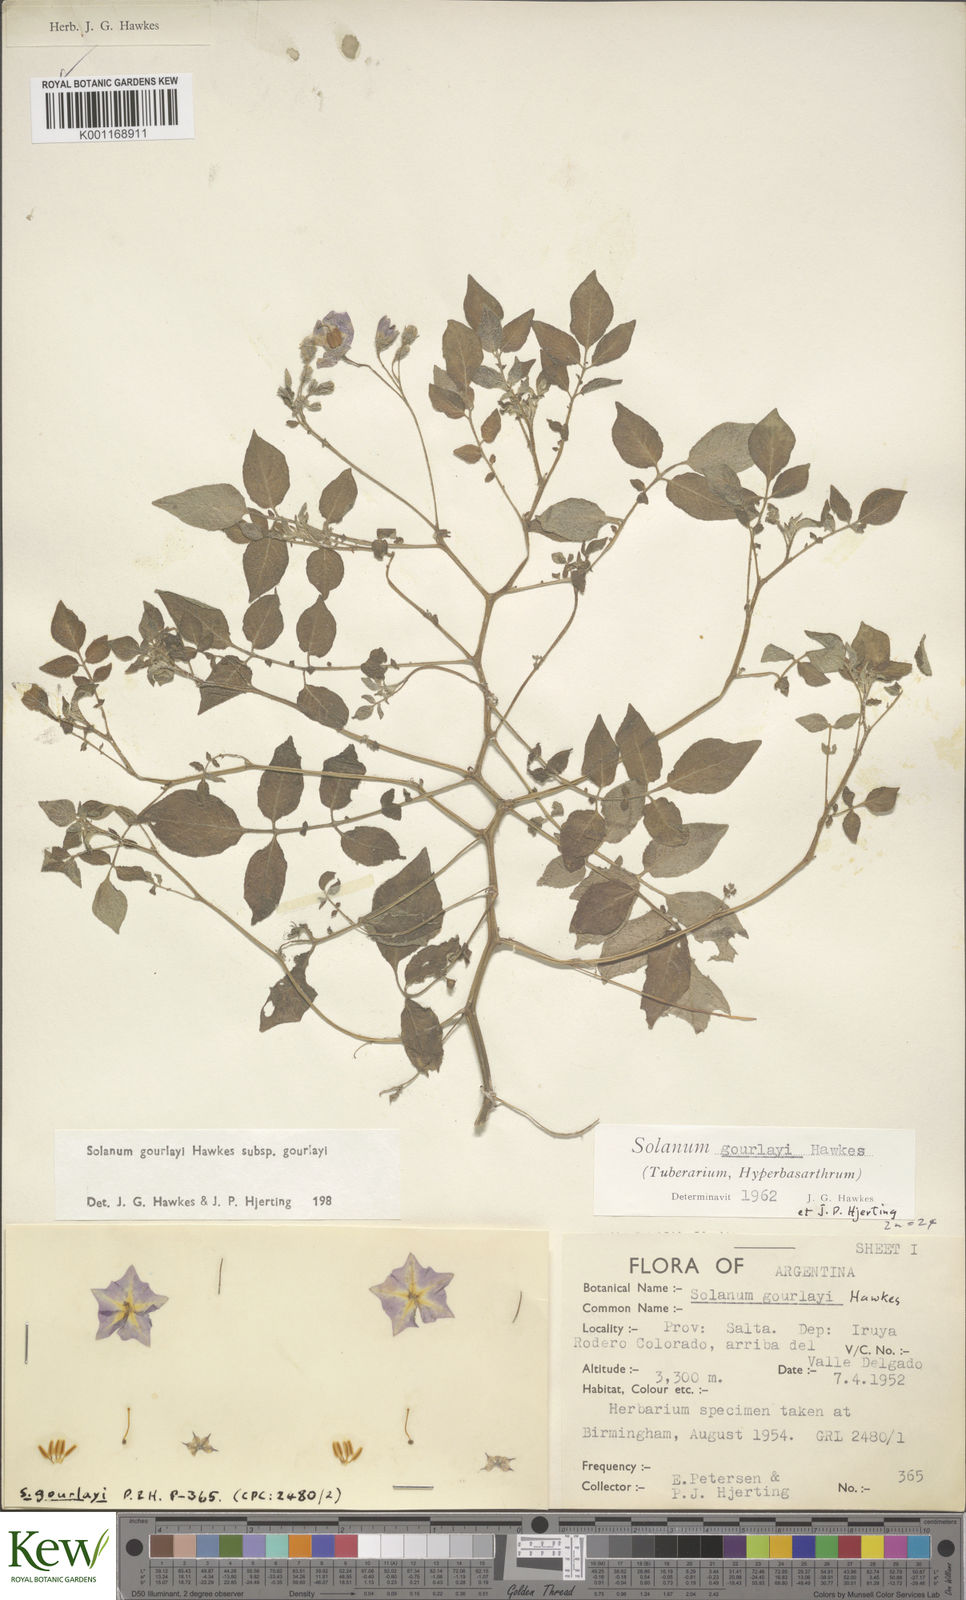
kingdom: Plantae
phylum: Tracheophyta
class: Magnoliopsida
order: Solanales
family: Solanaceae
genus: Solanum
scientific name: Solanum brevicaule
